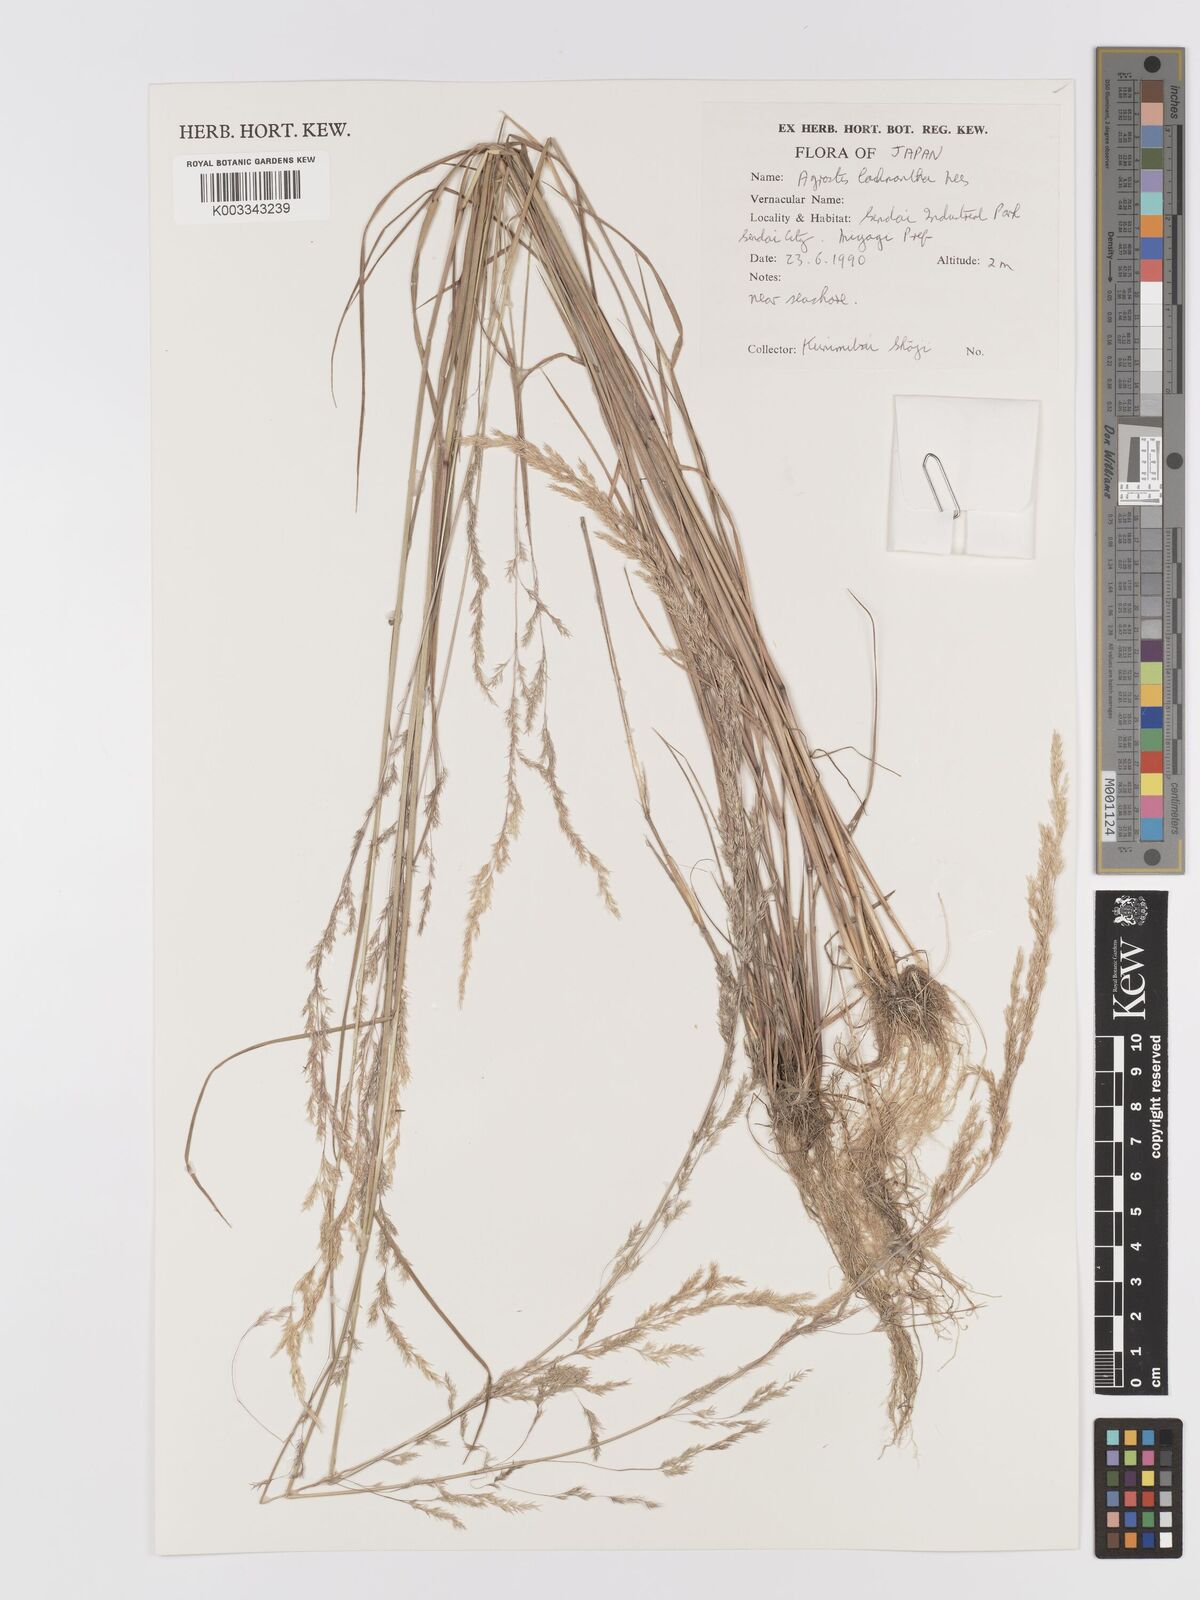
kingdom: Plantae
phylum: Tracheophyta
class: Liliopsida
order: Poales
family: Poaceae
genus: Lachnagrostis
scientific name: Lachnagrostis lachnantha
